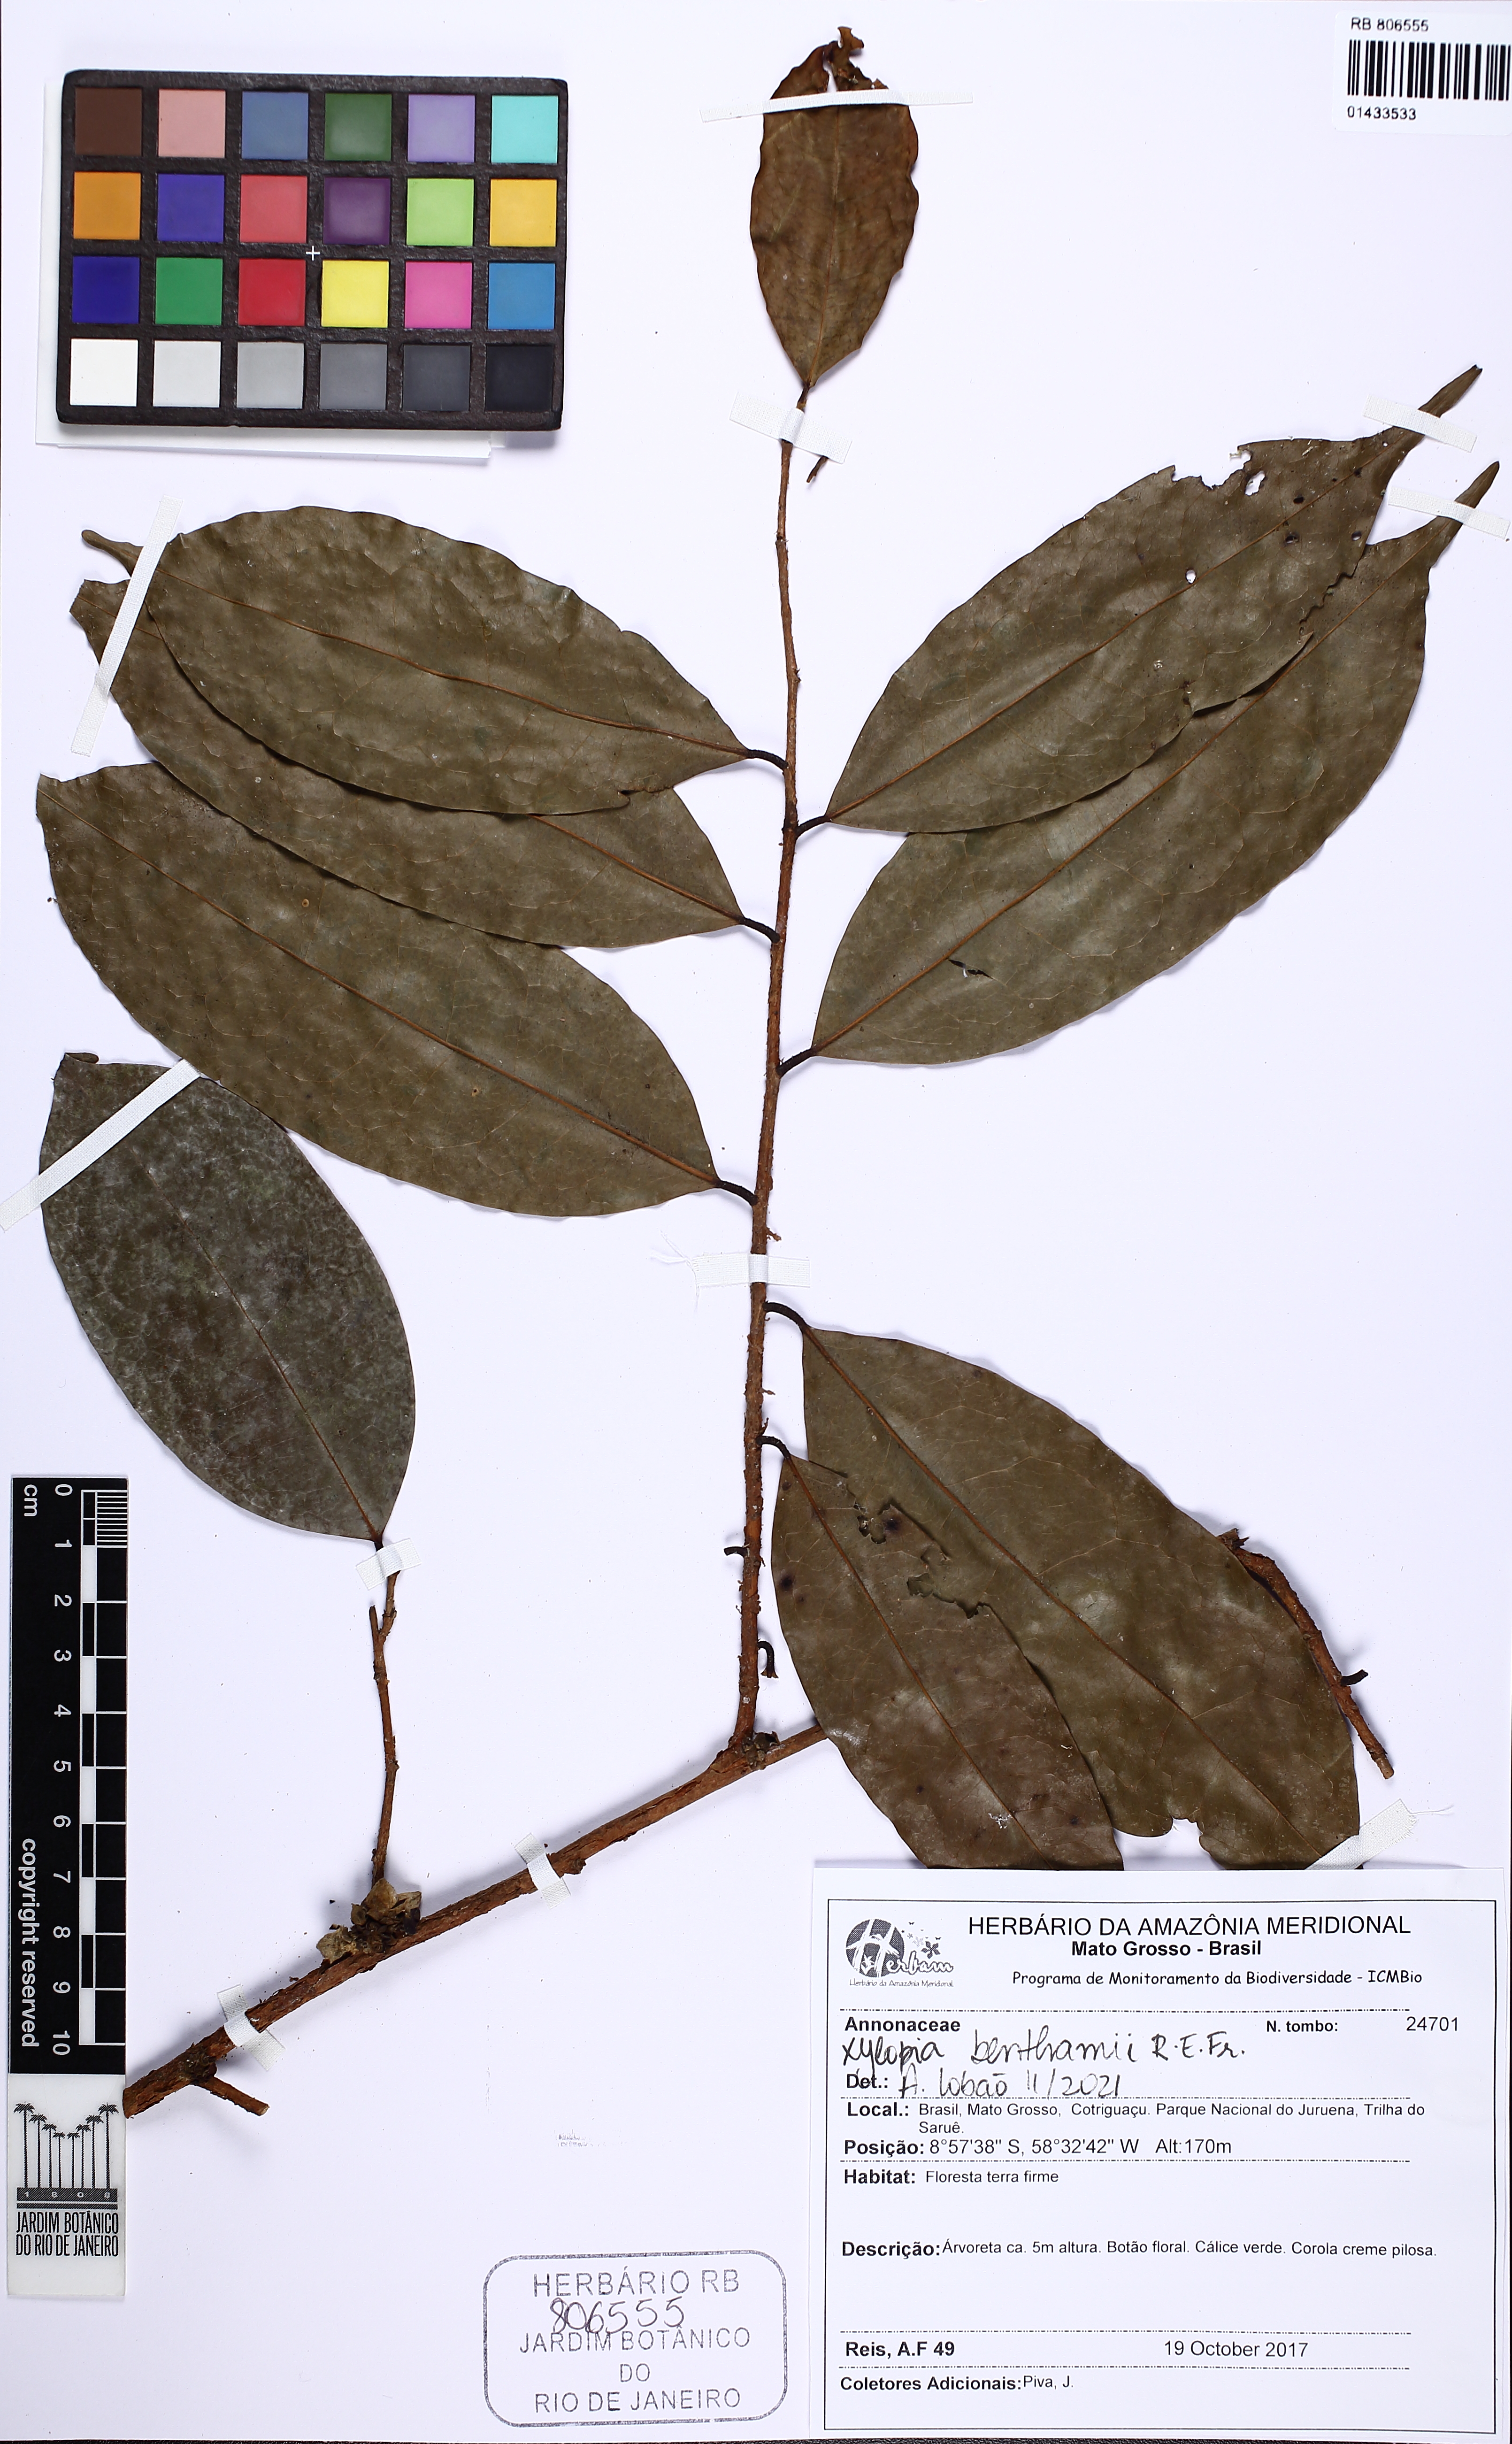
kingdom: Plantae
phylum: Tracheophyta
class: Magnoliopsida
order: Magnoliales
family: Annonaceae
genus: Xylopia
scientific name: Xylopia benthamii
